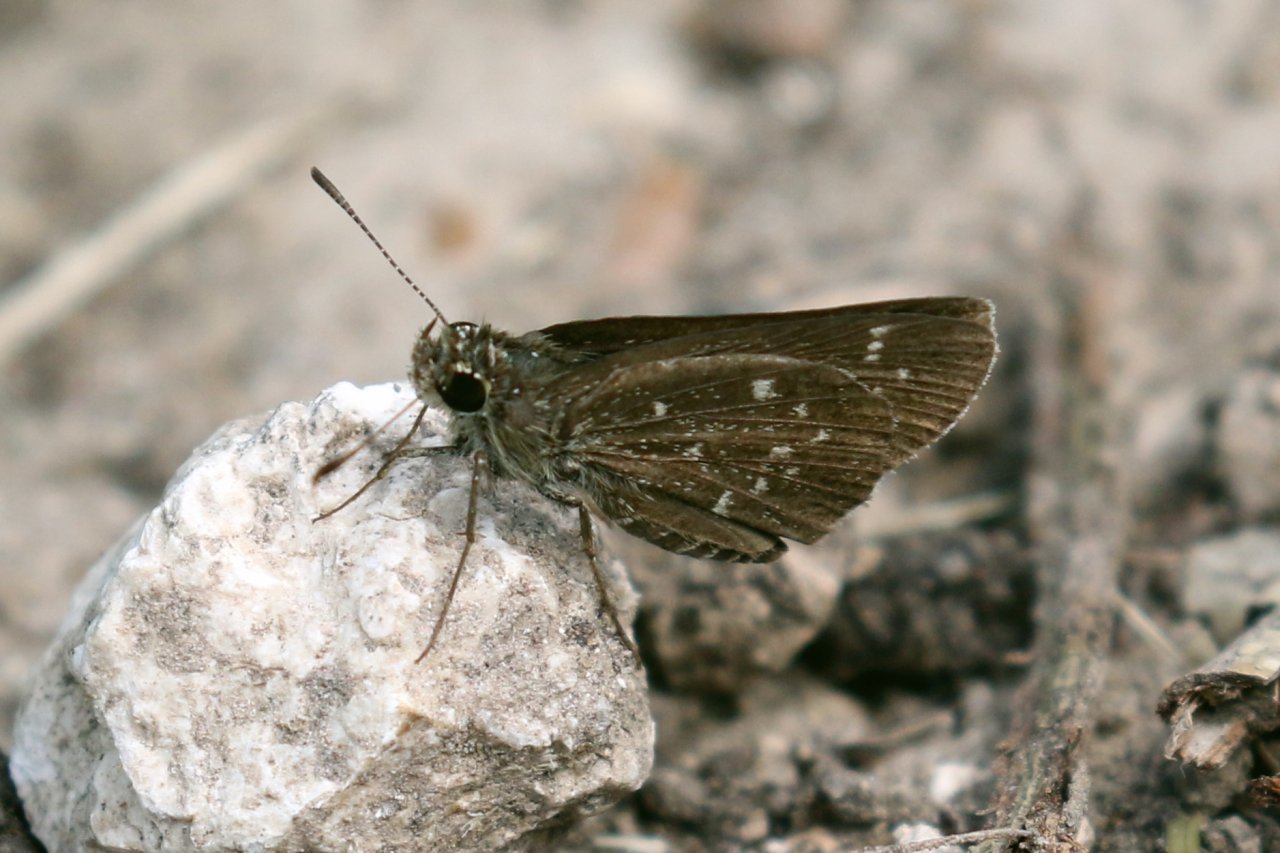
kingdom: Animalia
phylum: Arthropoda
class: Insecta
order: Lepidoptera
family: Hesperiidae
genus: Mastor
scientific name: Mastor celia
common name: Celia's Roadside-Skipper
